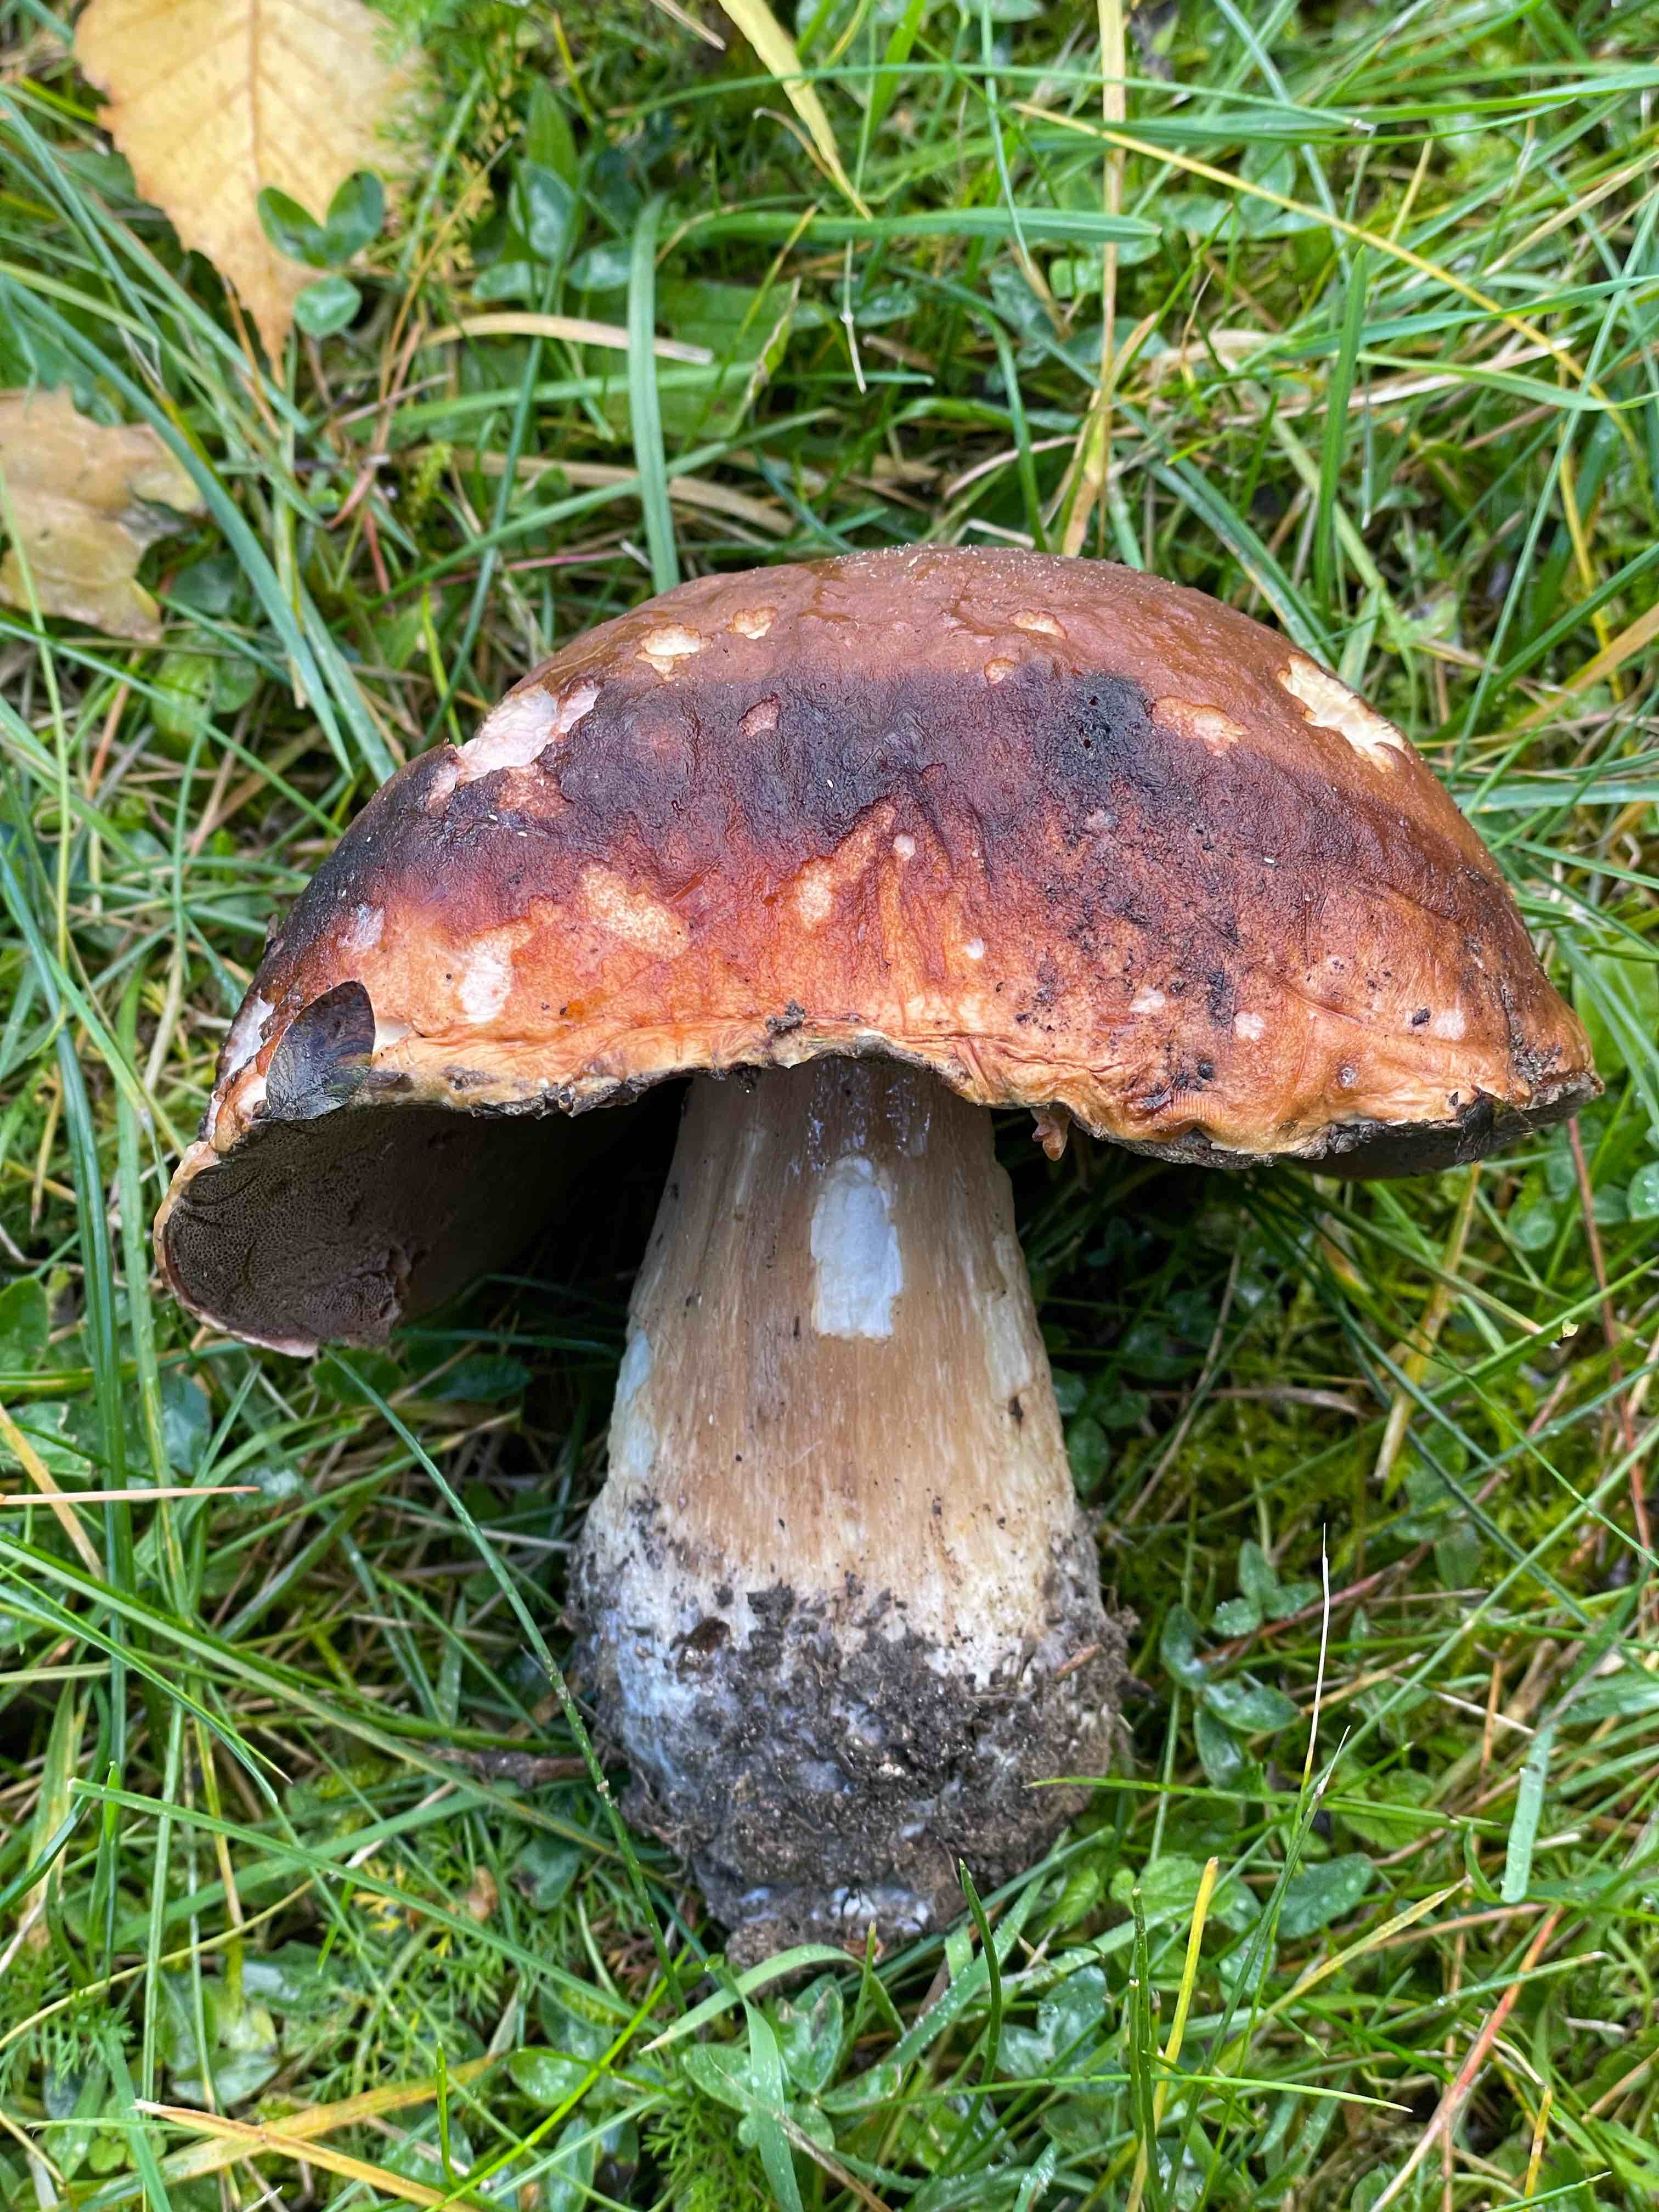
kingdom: Fungi
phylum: Basidiomycota
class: Agaricomycetes
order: Boletales
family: Boletaceae
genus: Boletus
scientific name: Boletus
